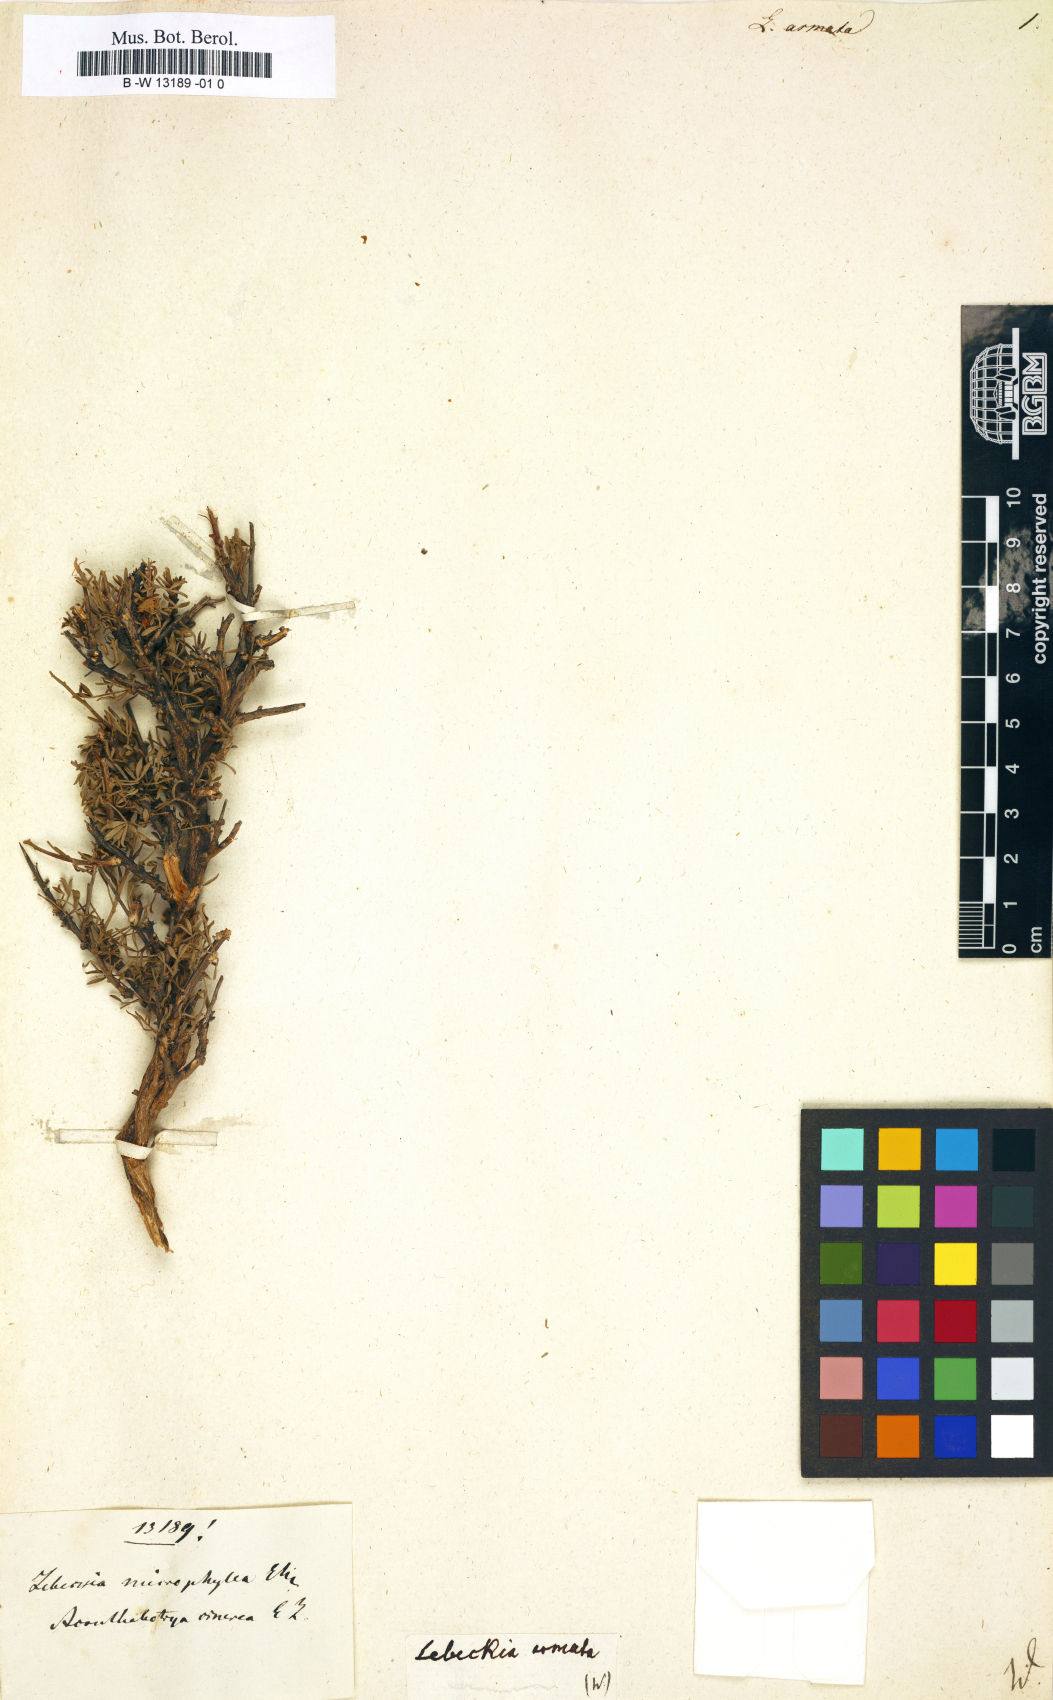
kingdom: Plantae
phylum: Tracheophyta
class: Magnoliopsida
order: Fabales
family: Fabaceae
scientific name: Fabaceae
